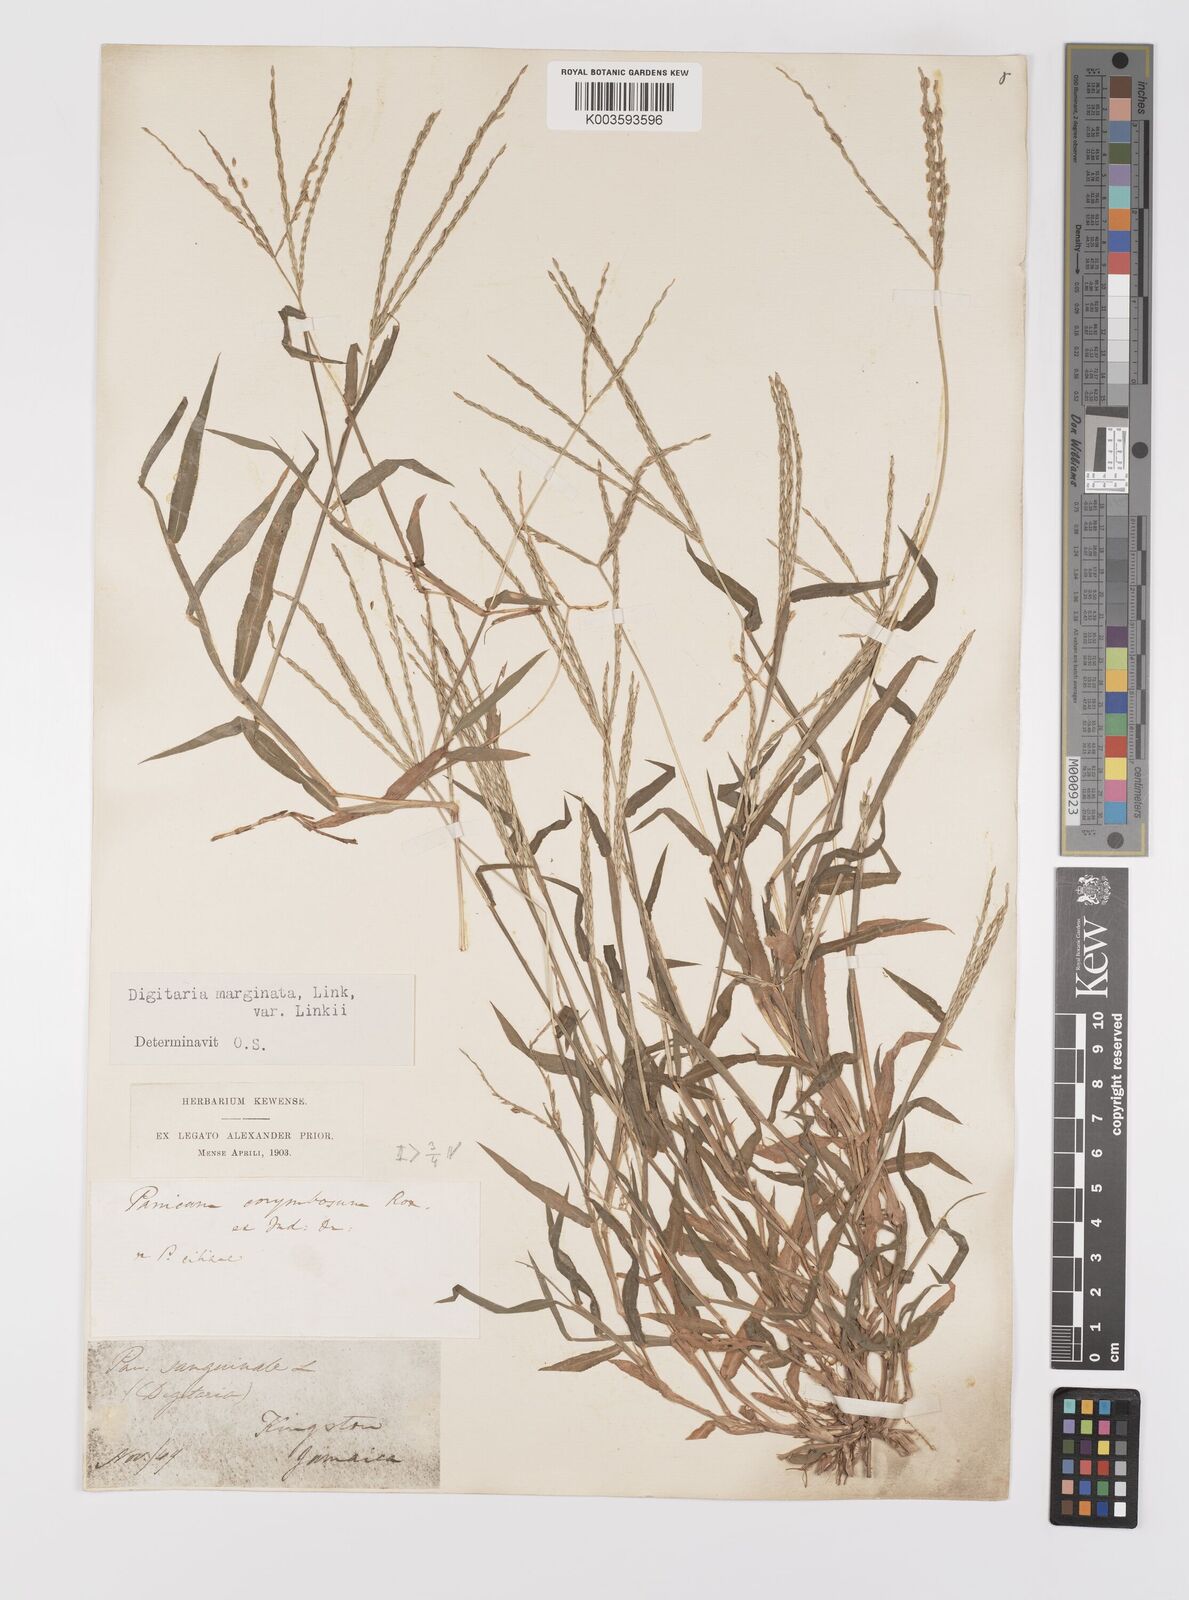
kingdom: Plantae
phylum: Tracheophyta
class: Liliopsida
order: Poales
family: Poaceae
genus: Digitaria
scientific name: Digitaria ciliaris
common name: Tropical finger-grass
